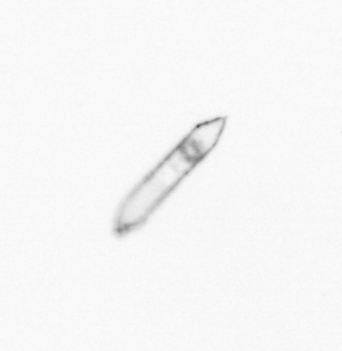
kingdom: Chromista
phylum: Ochrophyta
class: Bacillariophyceae
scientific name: Bacillariophyceae
